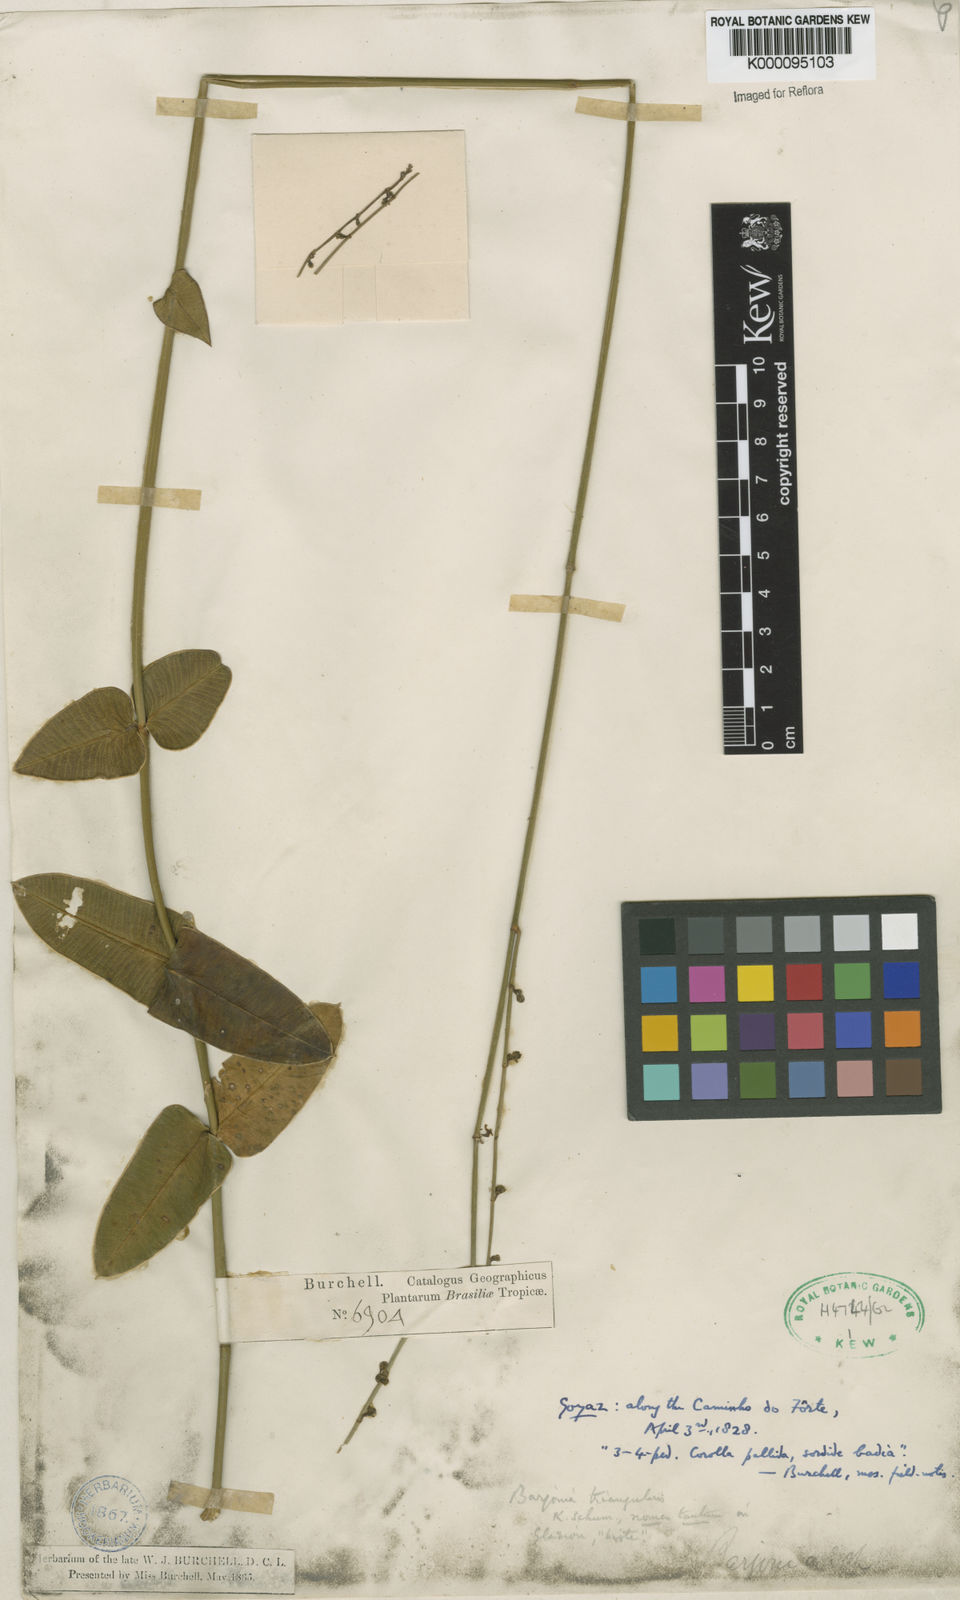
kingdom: Plantae
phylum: Tracheophyta
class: Magnoliopsida
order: Gentianales
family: Apocynaceae
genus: Barjonia
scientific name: Barjonia erecta
